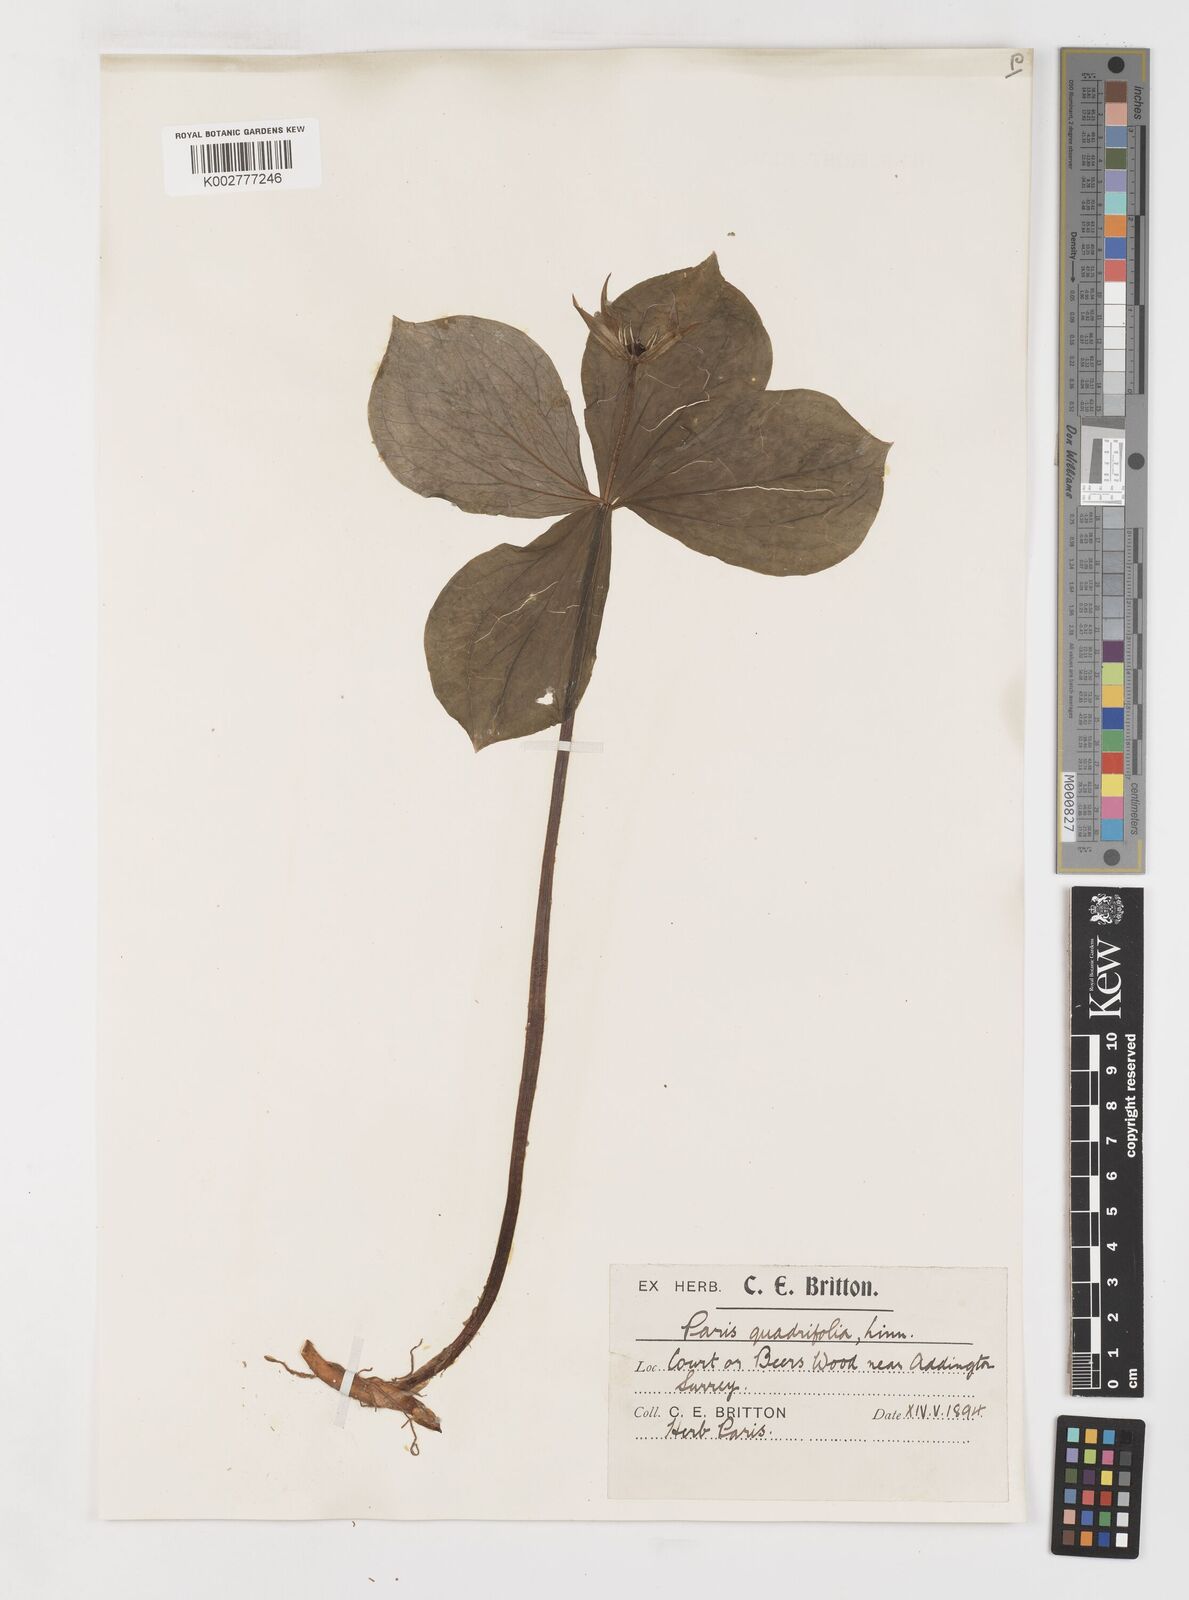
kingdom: Plantae
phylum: Tracheophyta
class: Liliopsida
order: Liliales
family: Melanthiaceae
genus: Paris
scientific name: Paris
